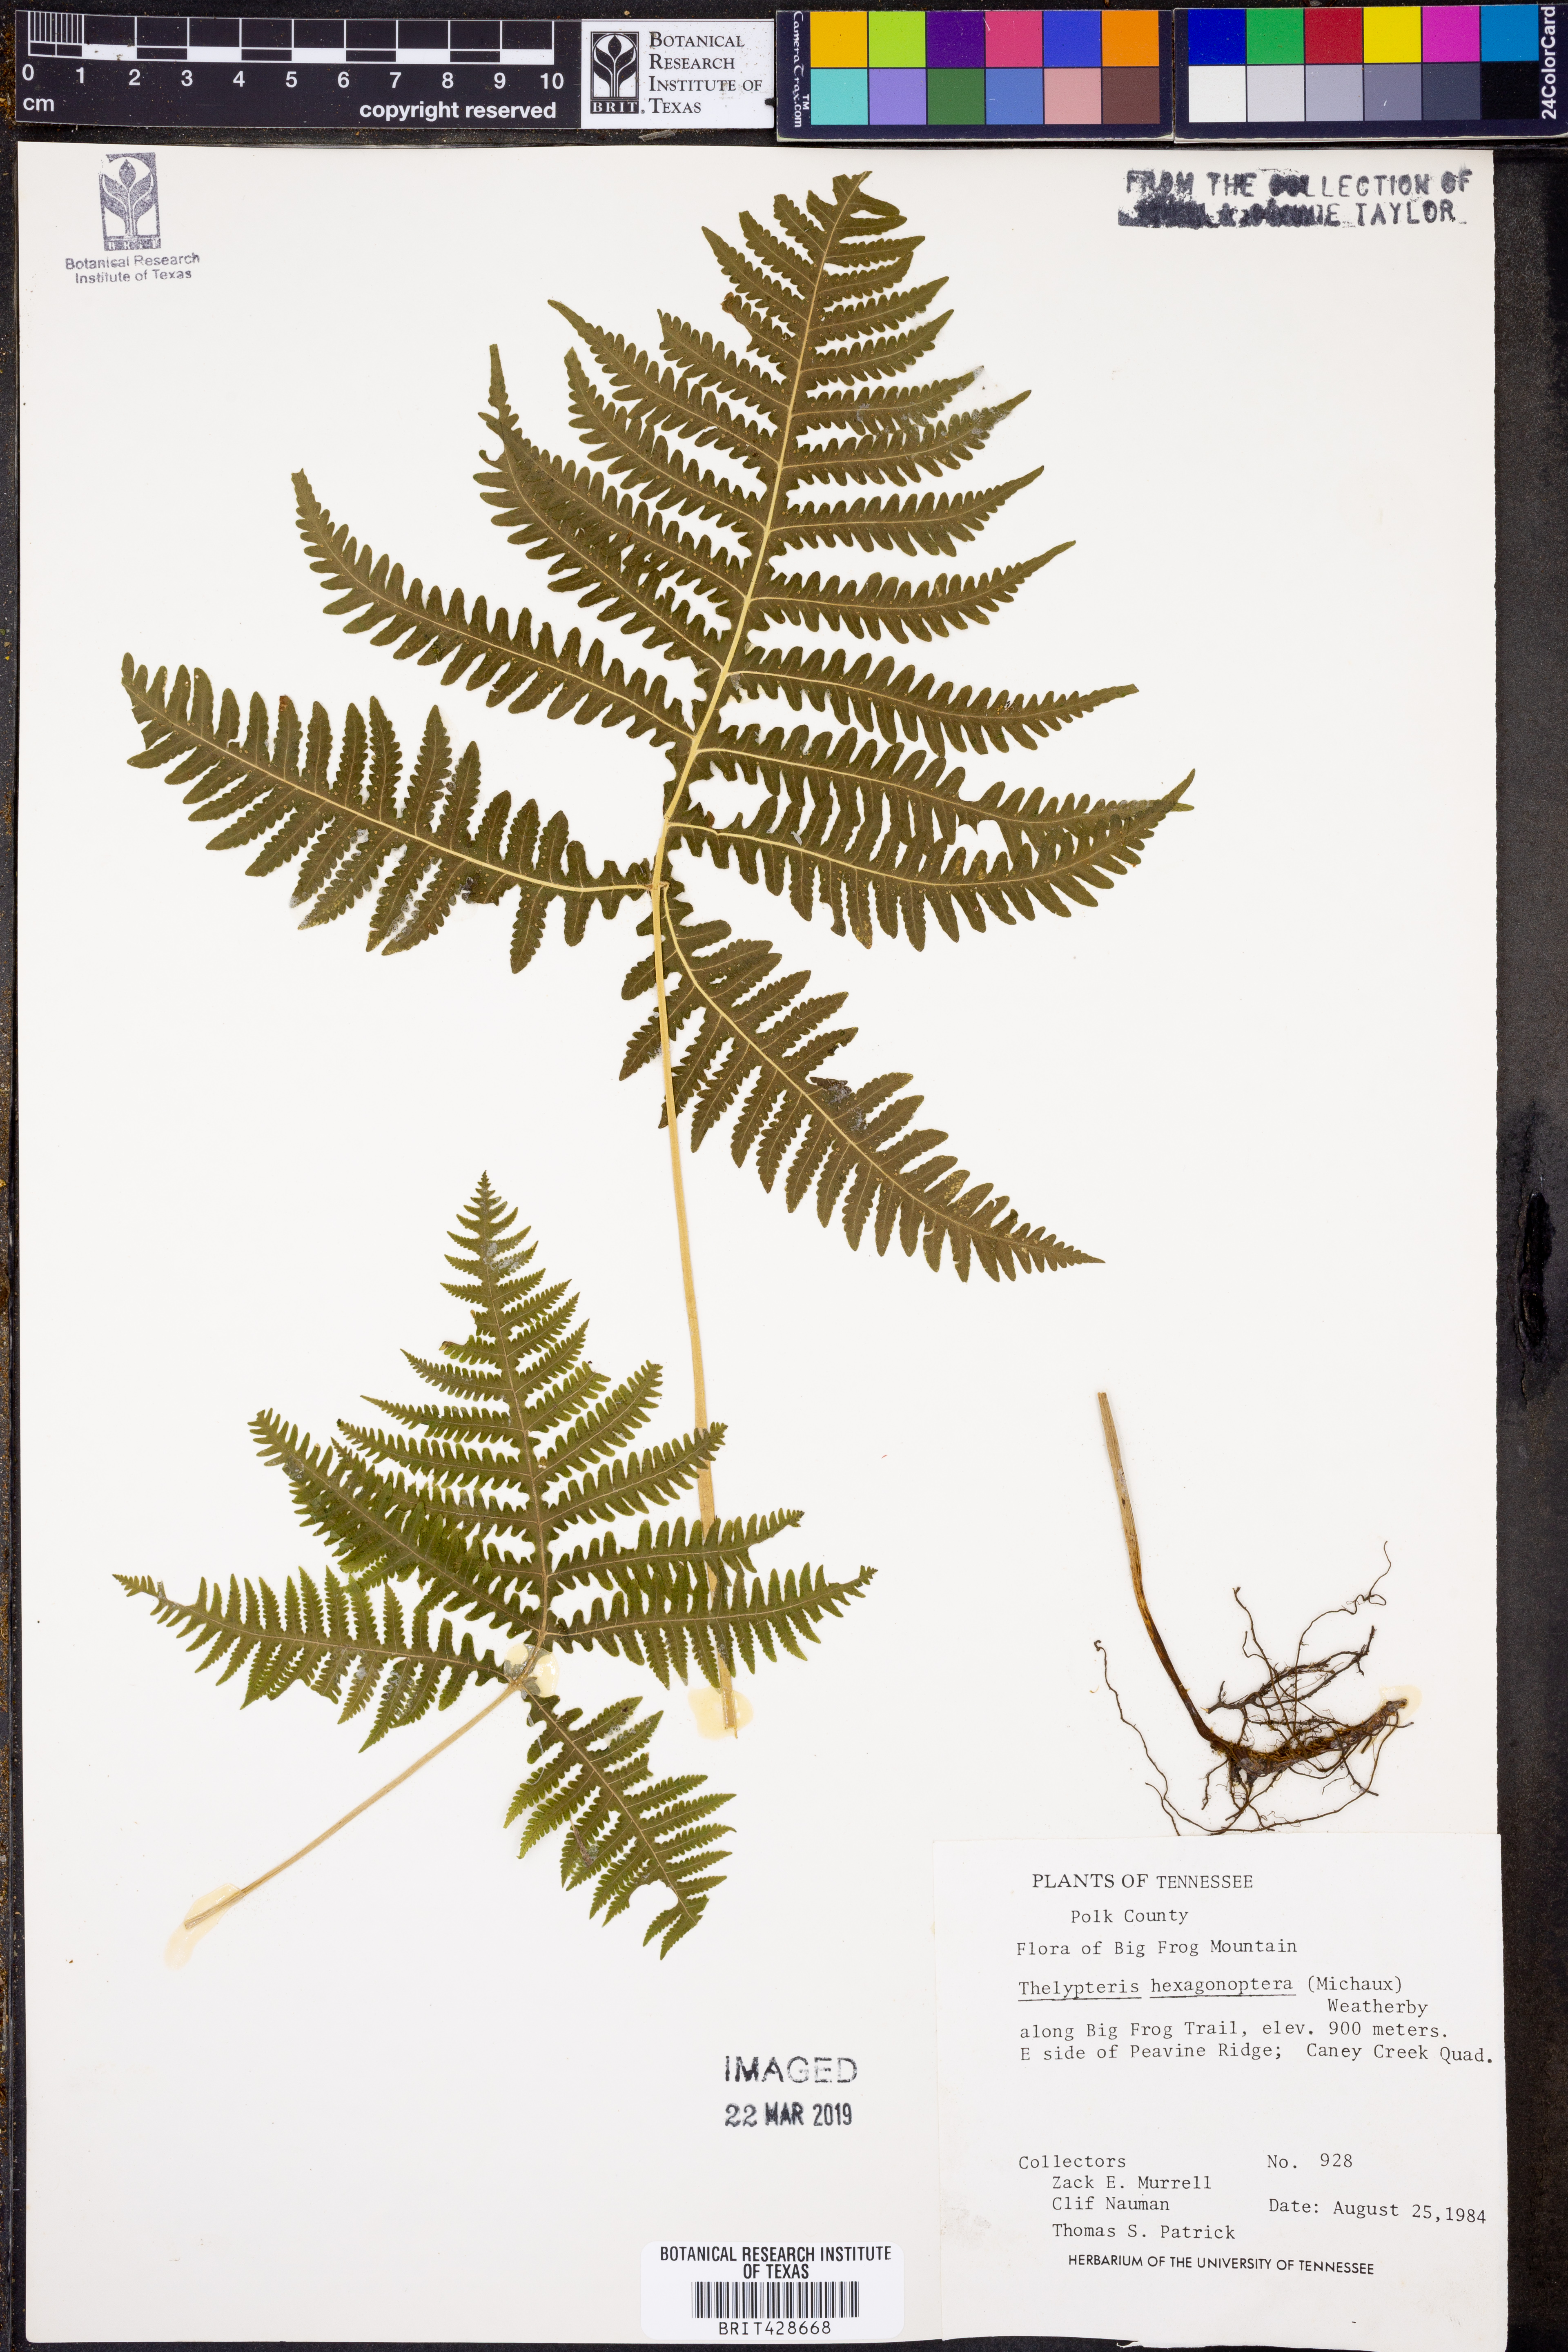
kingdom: Plantae
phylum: Tracheophyta
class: Polypodiopsida
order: Polypodiales
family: Thelypteridaceae
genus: Phegopteris
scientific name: Phegopteris hexagonoptera
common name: Broad beech fern
